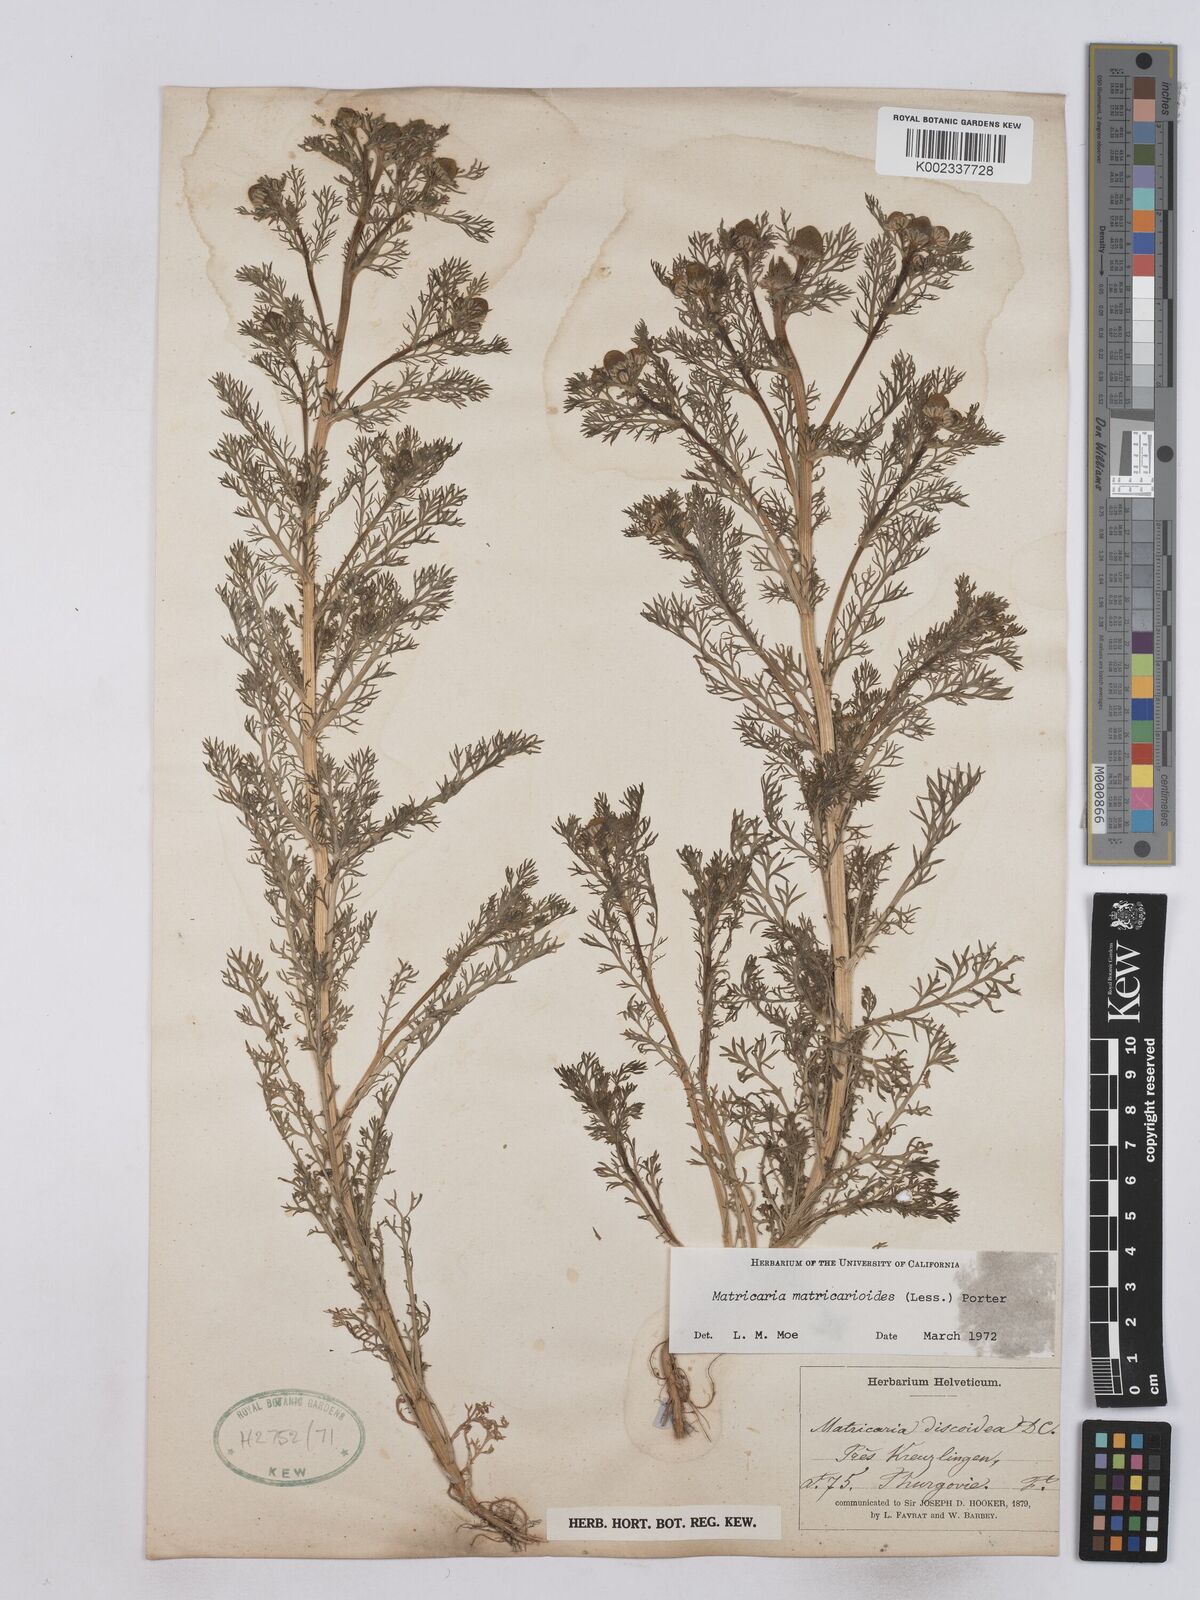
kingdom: Plantae
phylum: Tracheophyta
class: Magnoliopsida
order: Asterales
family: Asteraceae
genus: Matricaria
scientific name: Matricaria discoidea
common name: Disc mayweed
